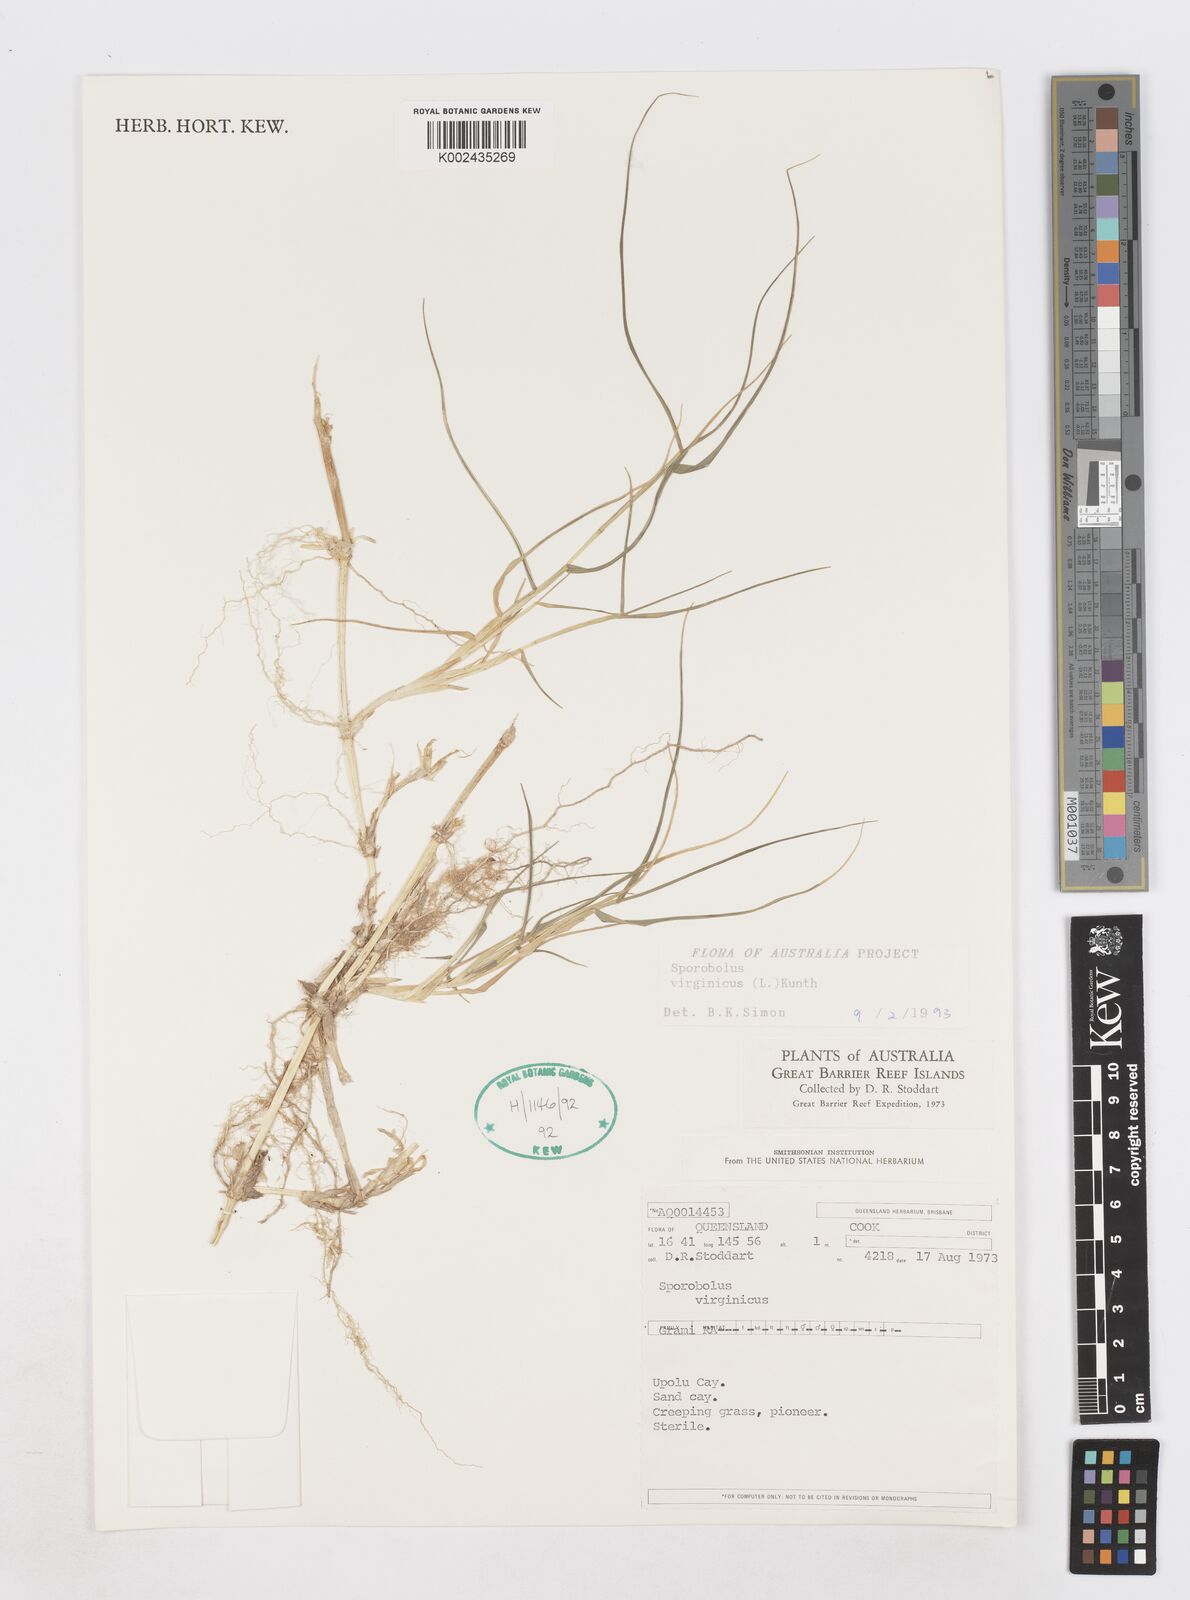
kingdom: Plantae
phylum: Tracheophyta
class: Liliopsida
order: Poales
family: Poaceae
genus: Sporobolus
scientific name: Sporobolus virginicus
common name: Beach dropseed
